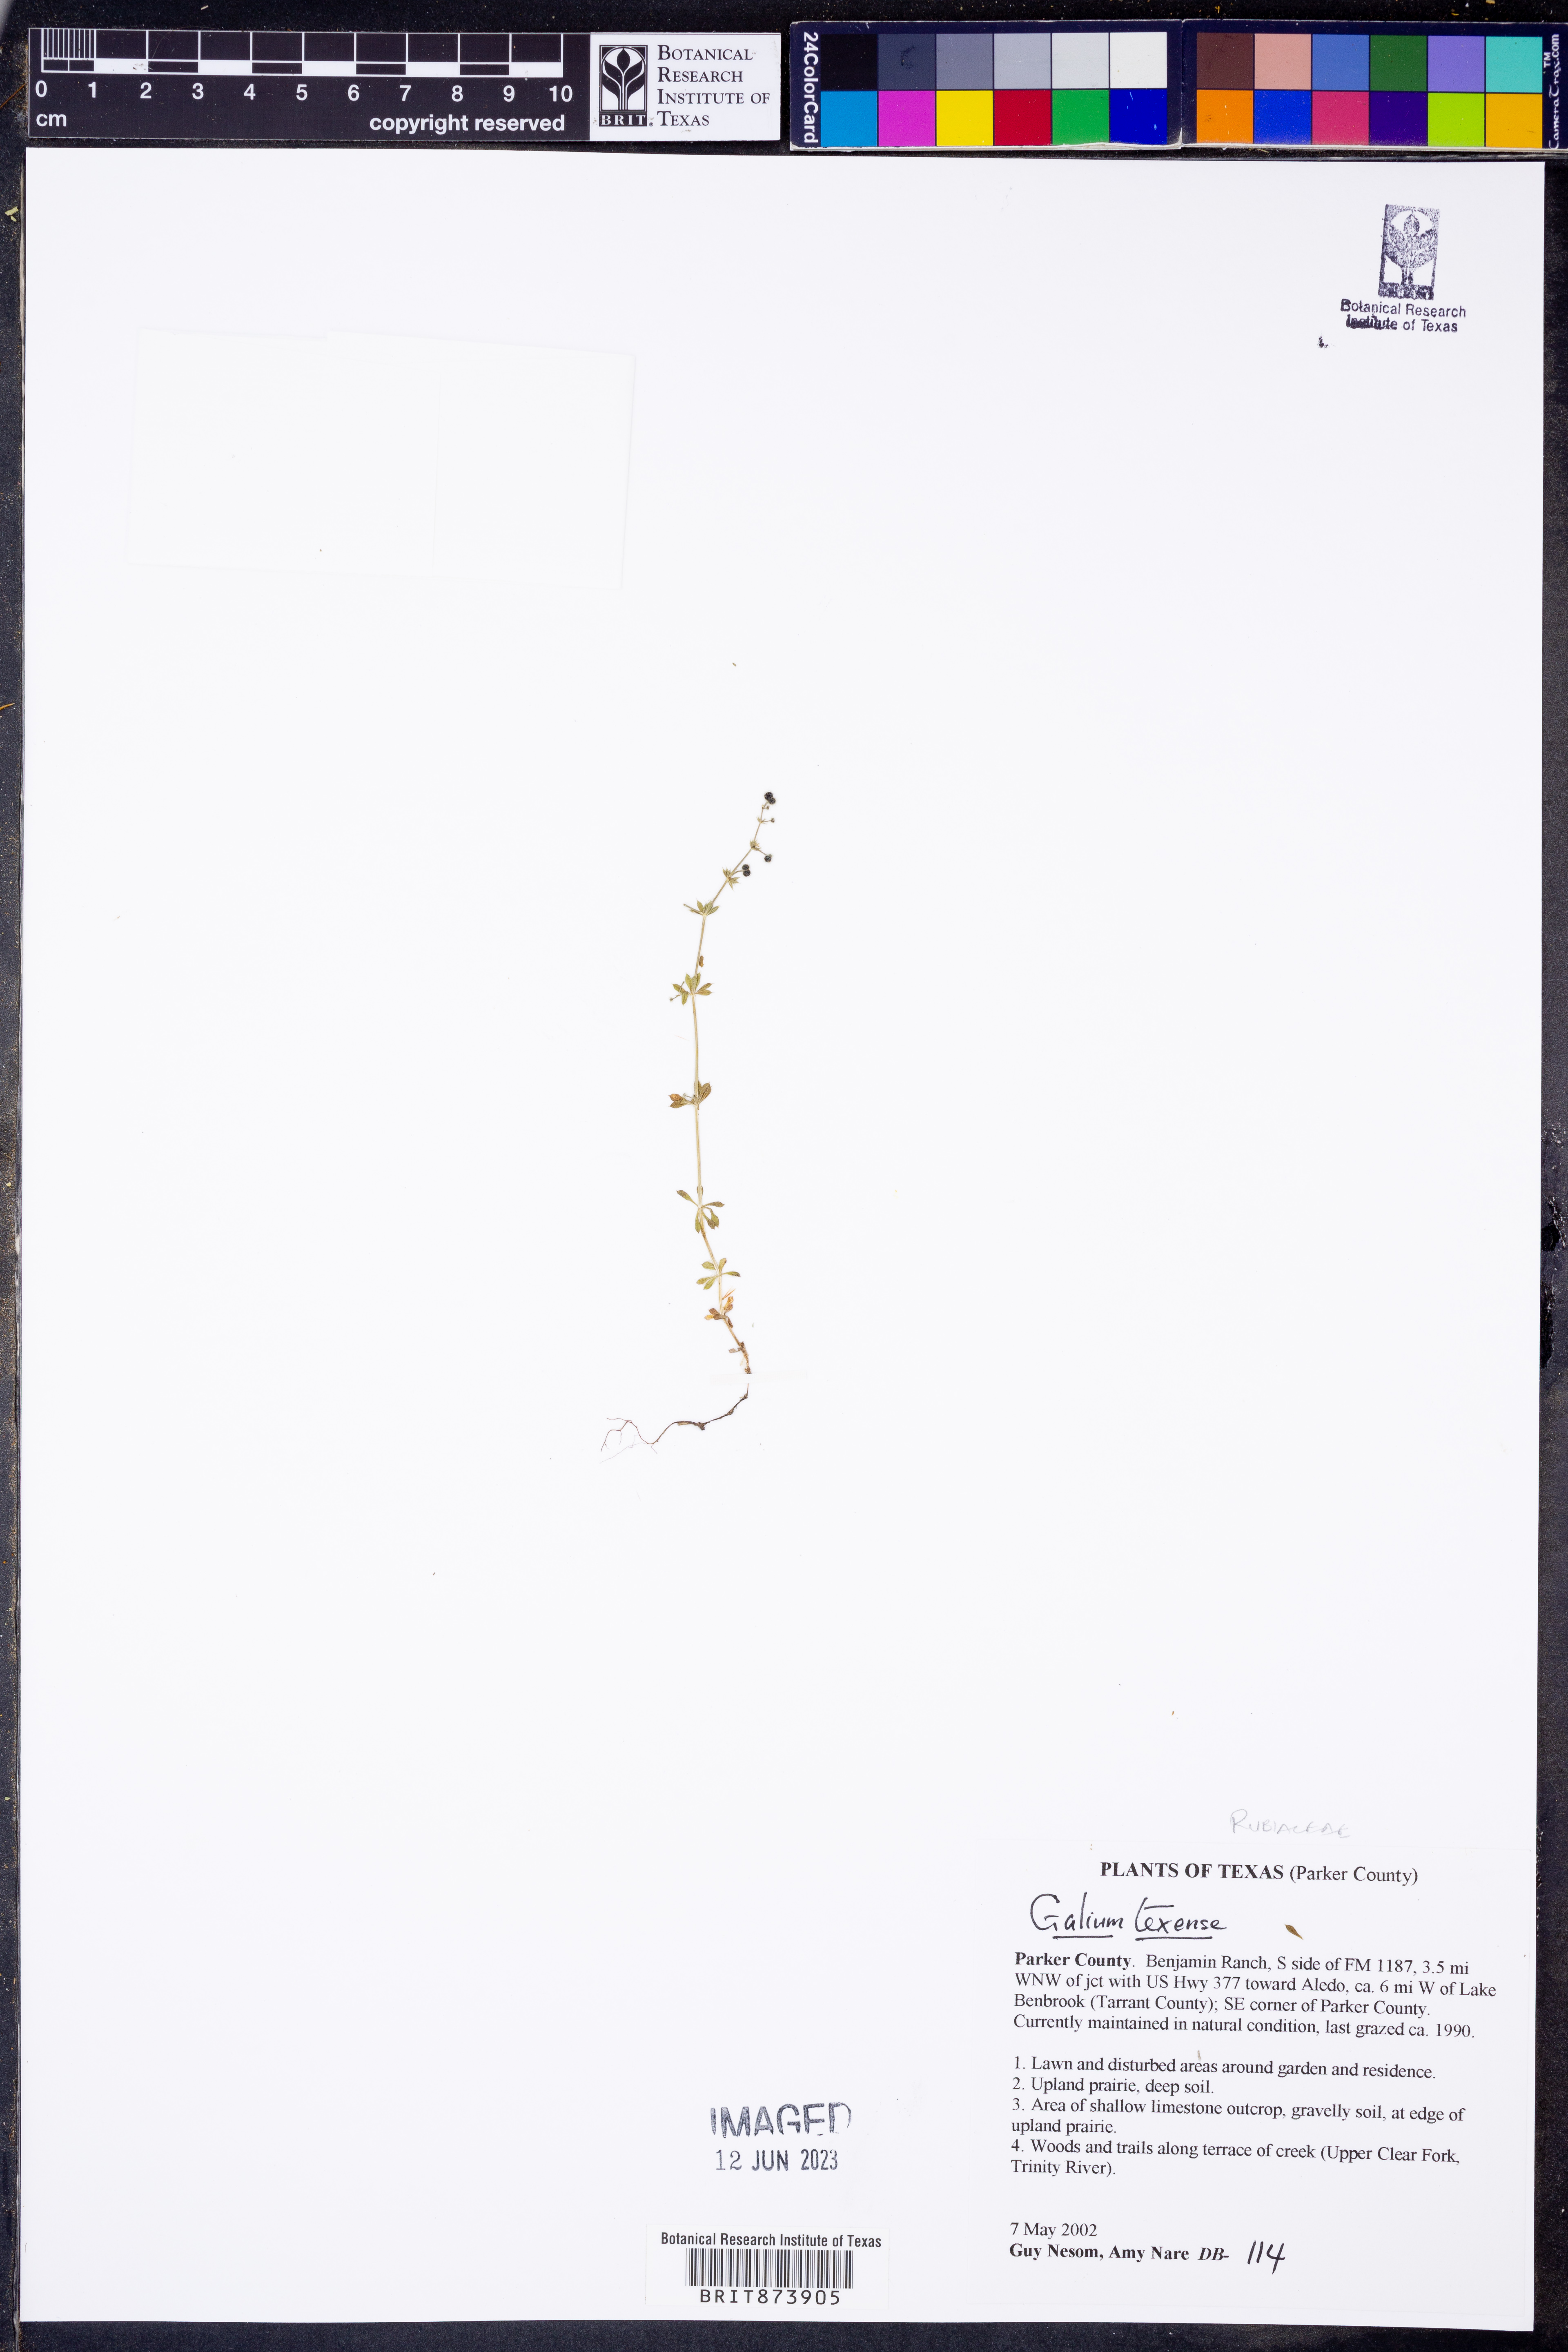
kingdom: Plantae
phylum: Tracheophyta
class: Magnoliopsida
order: Gentianales
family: Rubiaceae
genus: Galium
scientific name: Galium texense
